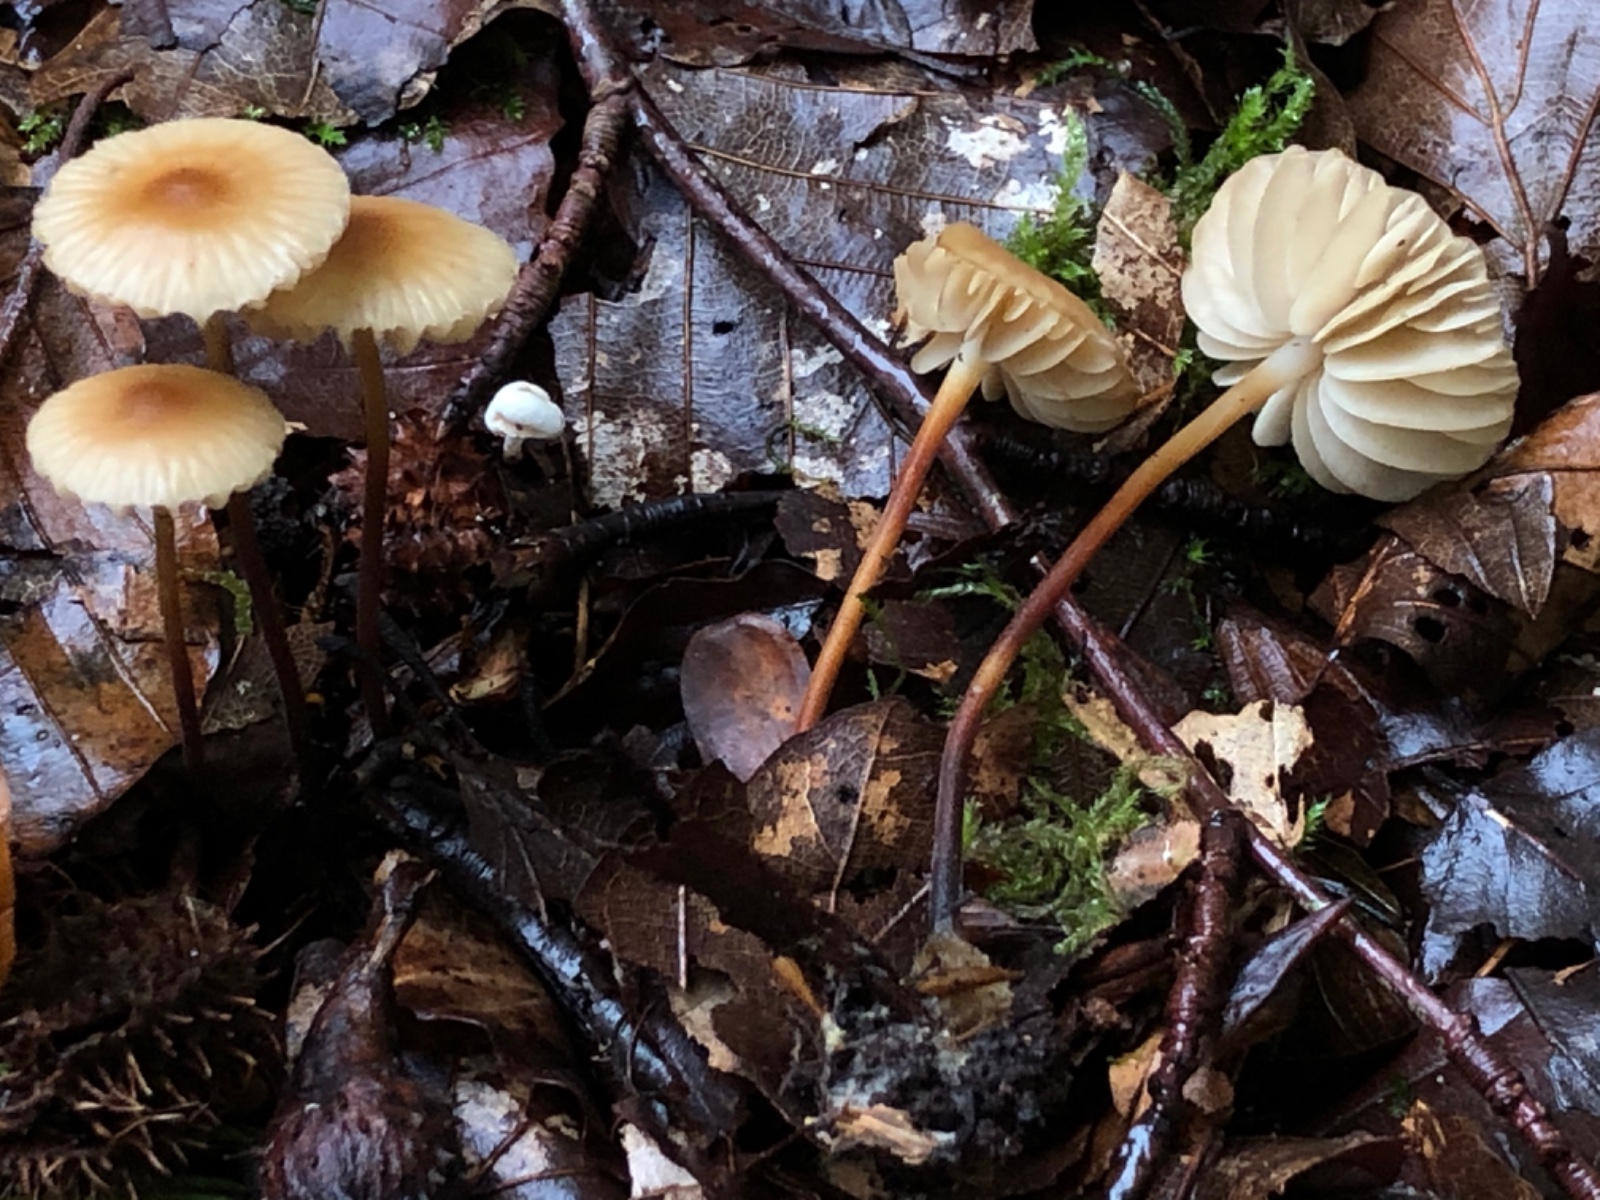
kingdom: Fungi
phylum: Basidiomycota
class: Agaricomycetes
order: Agaricales
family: Marasmiaceae
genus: Marasmius
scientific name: Marasmius torquescens
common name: filtfodet bruskhat
